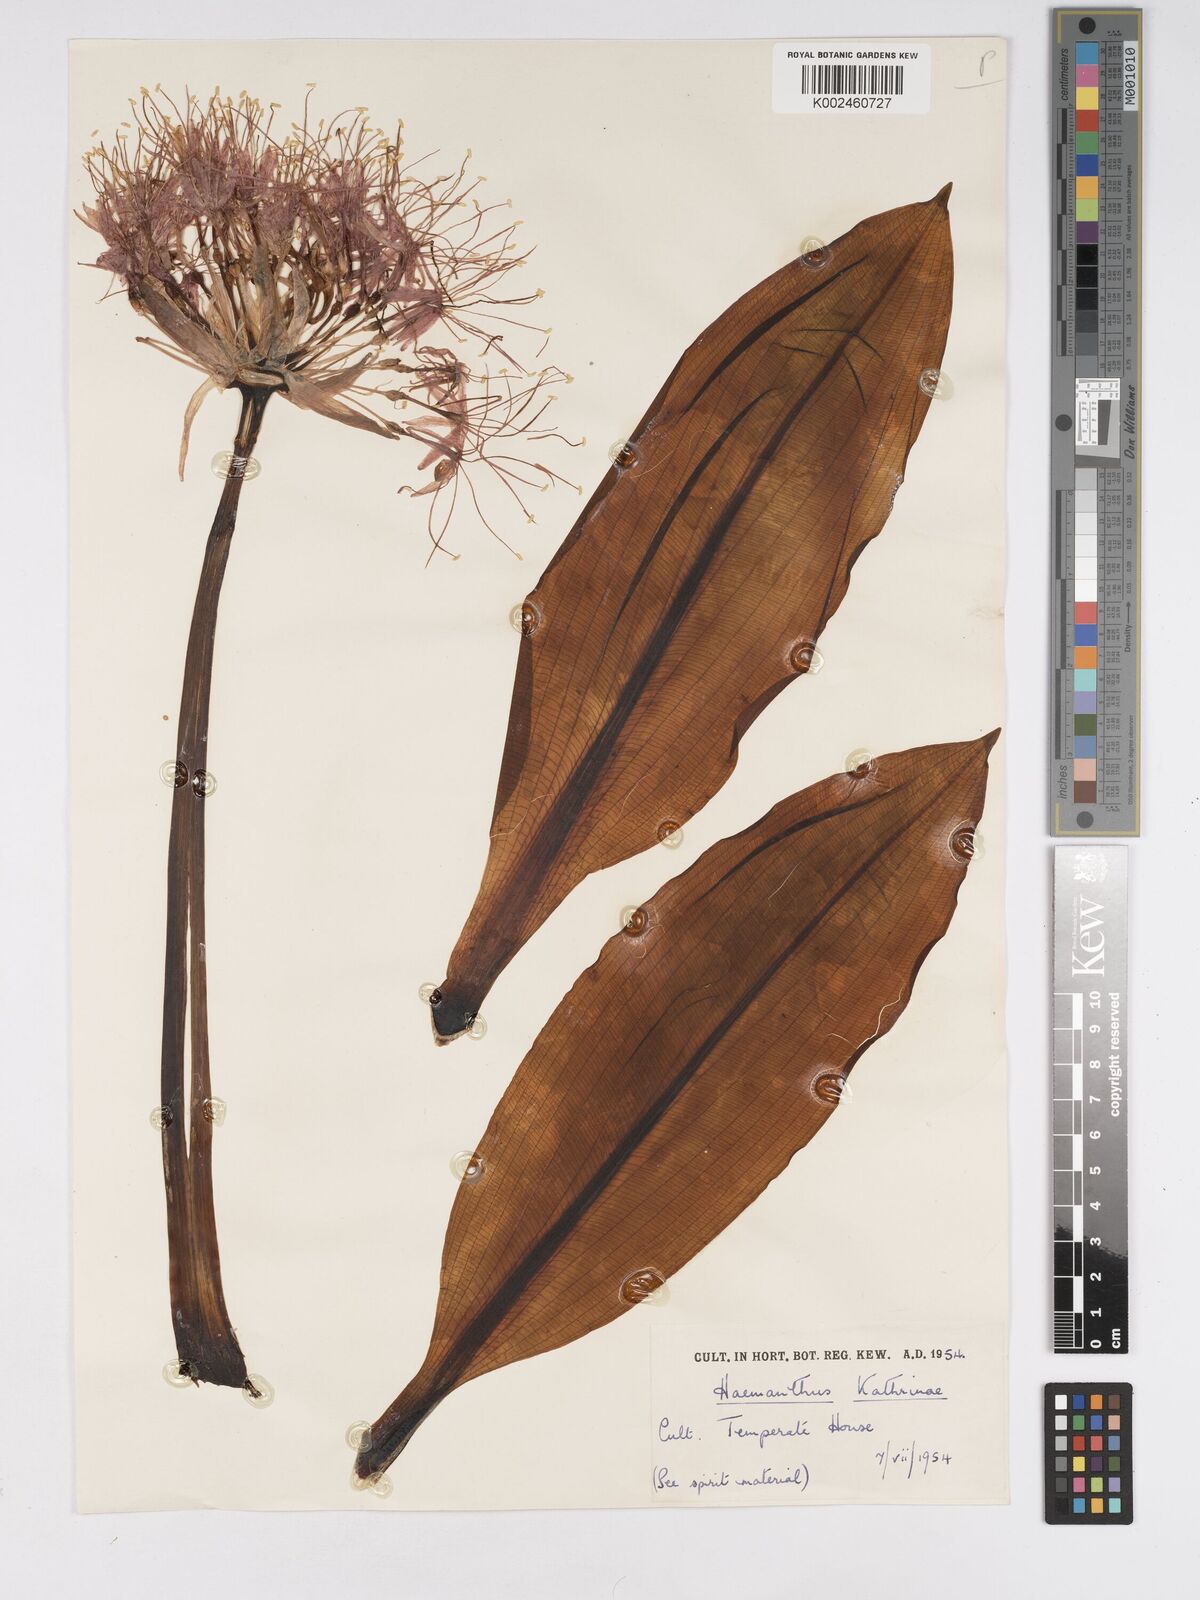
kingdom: Plantae
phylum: Tracheophyta
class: Liliopsida
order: Asparagales
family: Amaryllidaceae
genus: Scadoxus
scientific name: Scadoxus multiflorus
